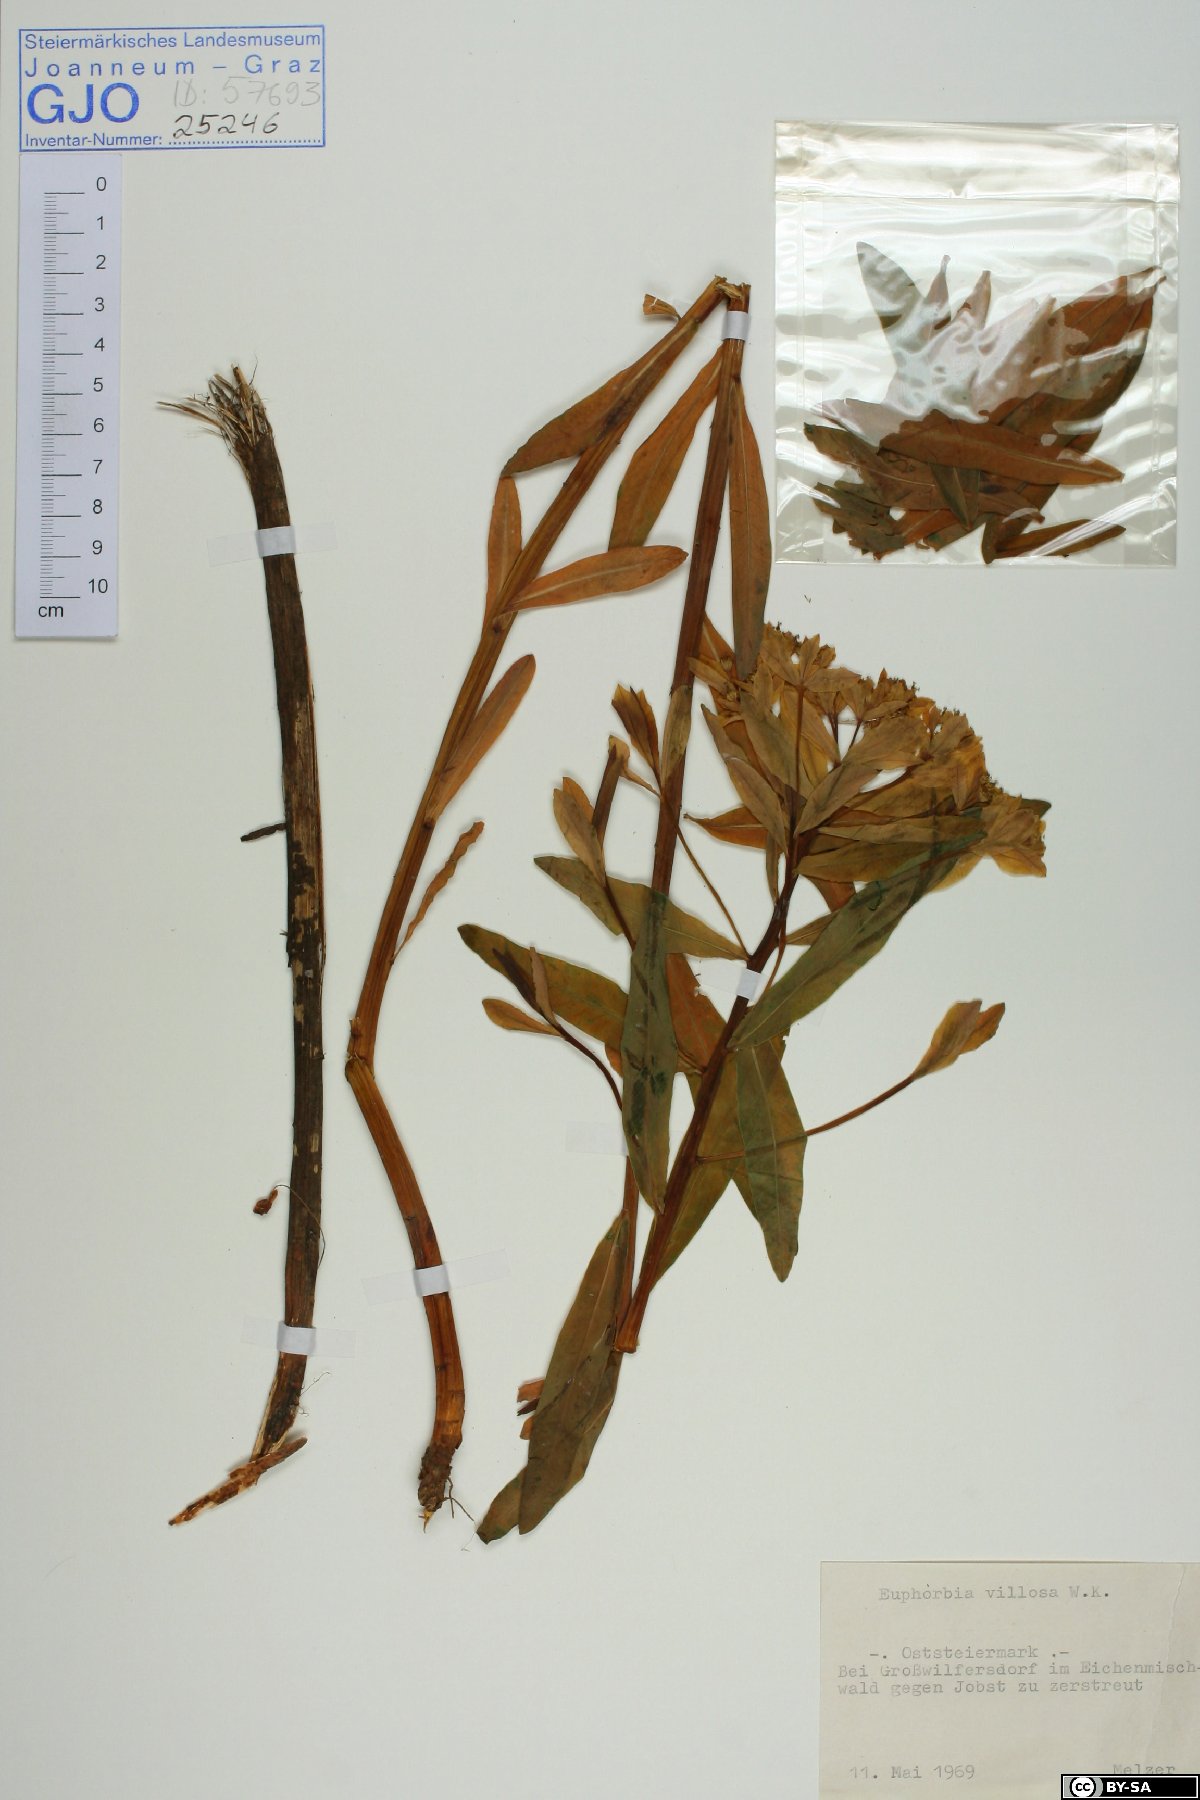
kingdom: Plantae
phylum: Tracheophyta
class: Magnoliopsida
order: Malpighiales
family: Euphorbiaceae
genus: Euphorbia
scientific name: Euphorbia illirica
